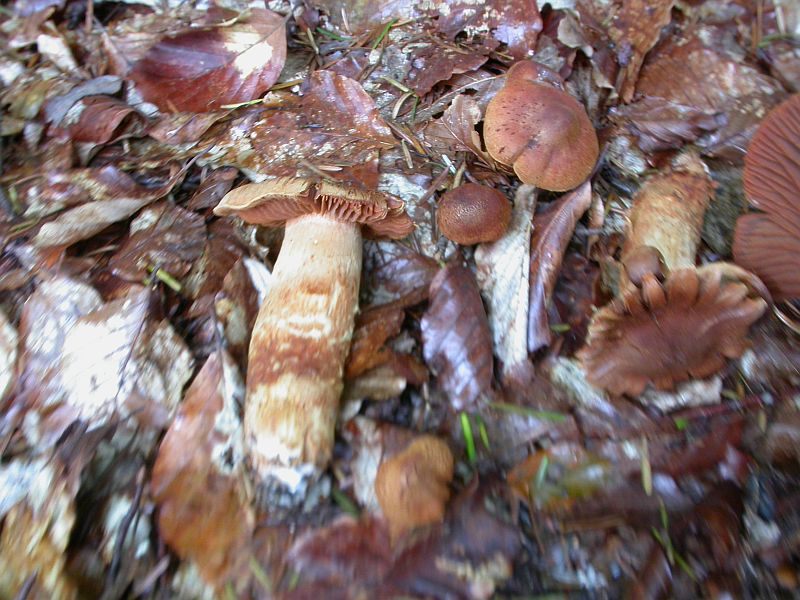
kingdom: Fungi
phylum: Basidiomycota
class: Agaricomycetes
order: Agaricales
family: Cortinariaceae
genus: Cortinarius
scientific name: Cortinarius rubellus
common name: puklet gift-slørhat
